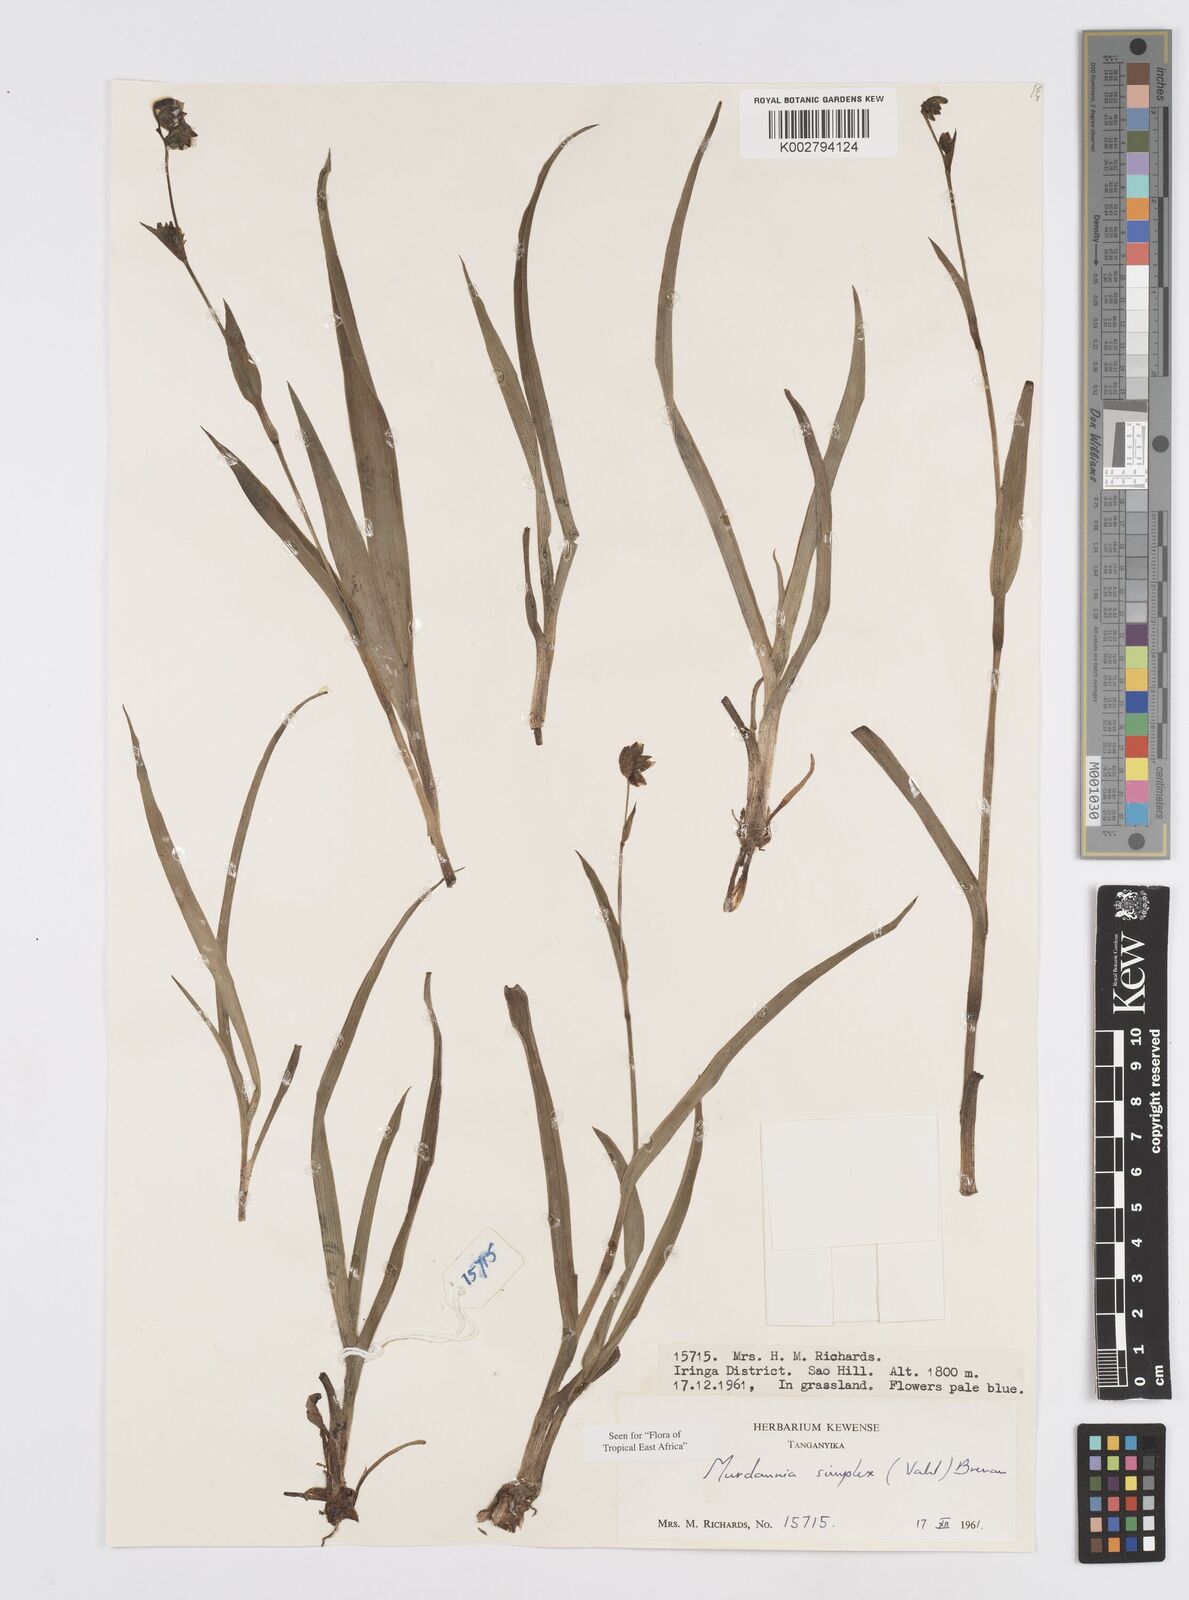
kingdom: Plantae
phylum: Tracheophyta
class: Liliopsida
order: Commelinales
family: Commelinaceae
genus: Murdannia
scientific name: Murdannia simplex
